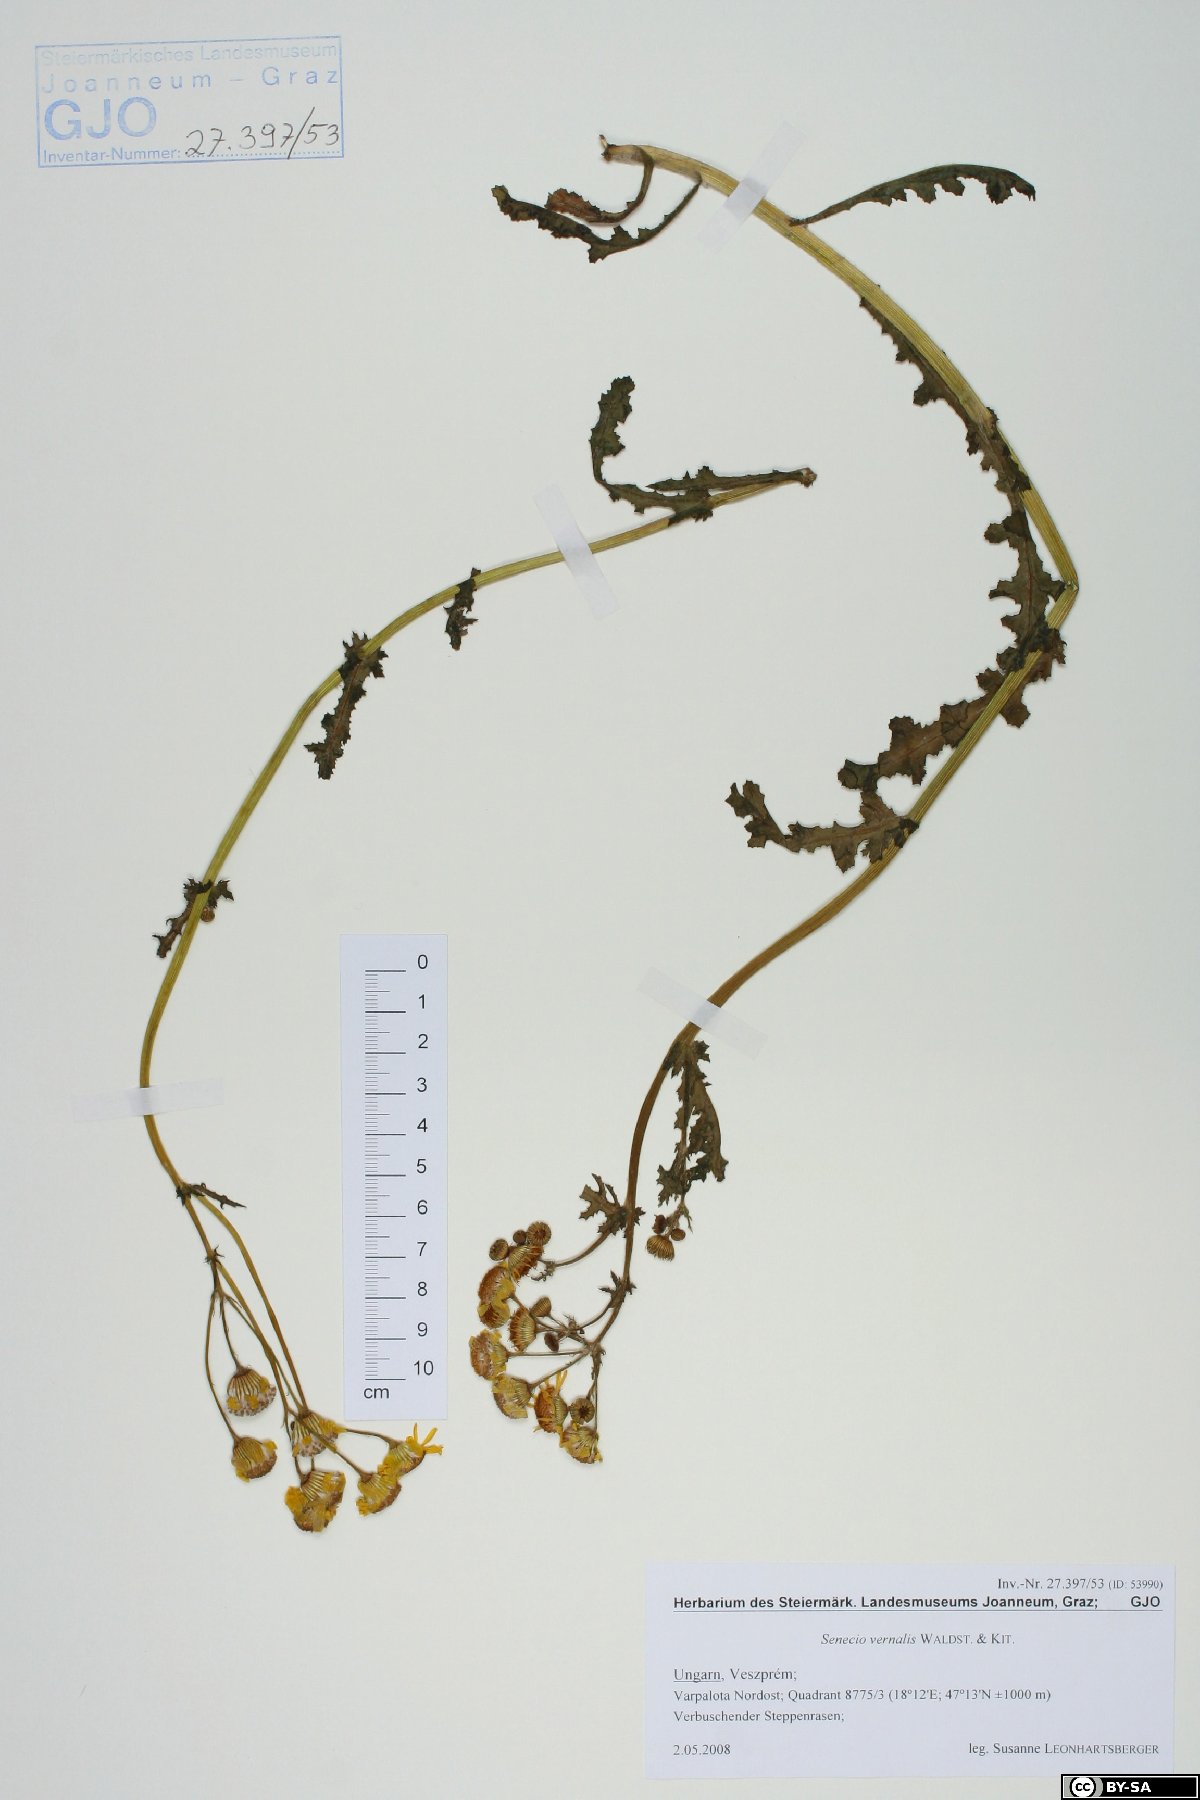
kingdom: Plantae
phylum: Tracheophyta
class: Magnoliopsida
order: Asterales
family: Asteraceae
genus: Senecio
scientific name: Senecio vernalis
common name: Eastern groundsel
